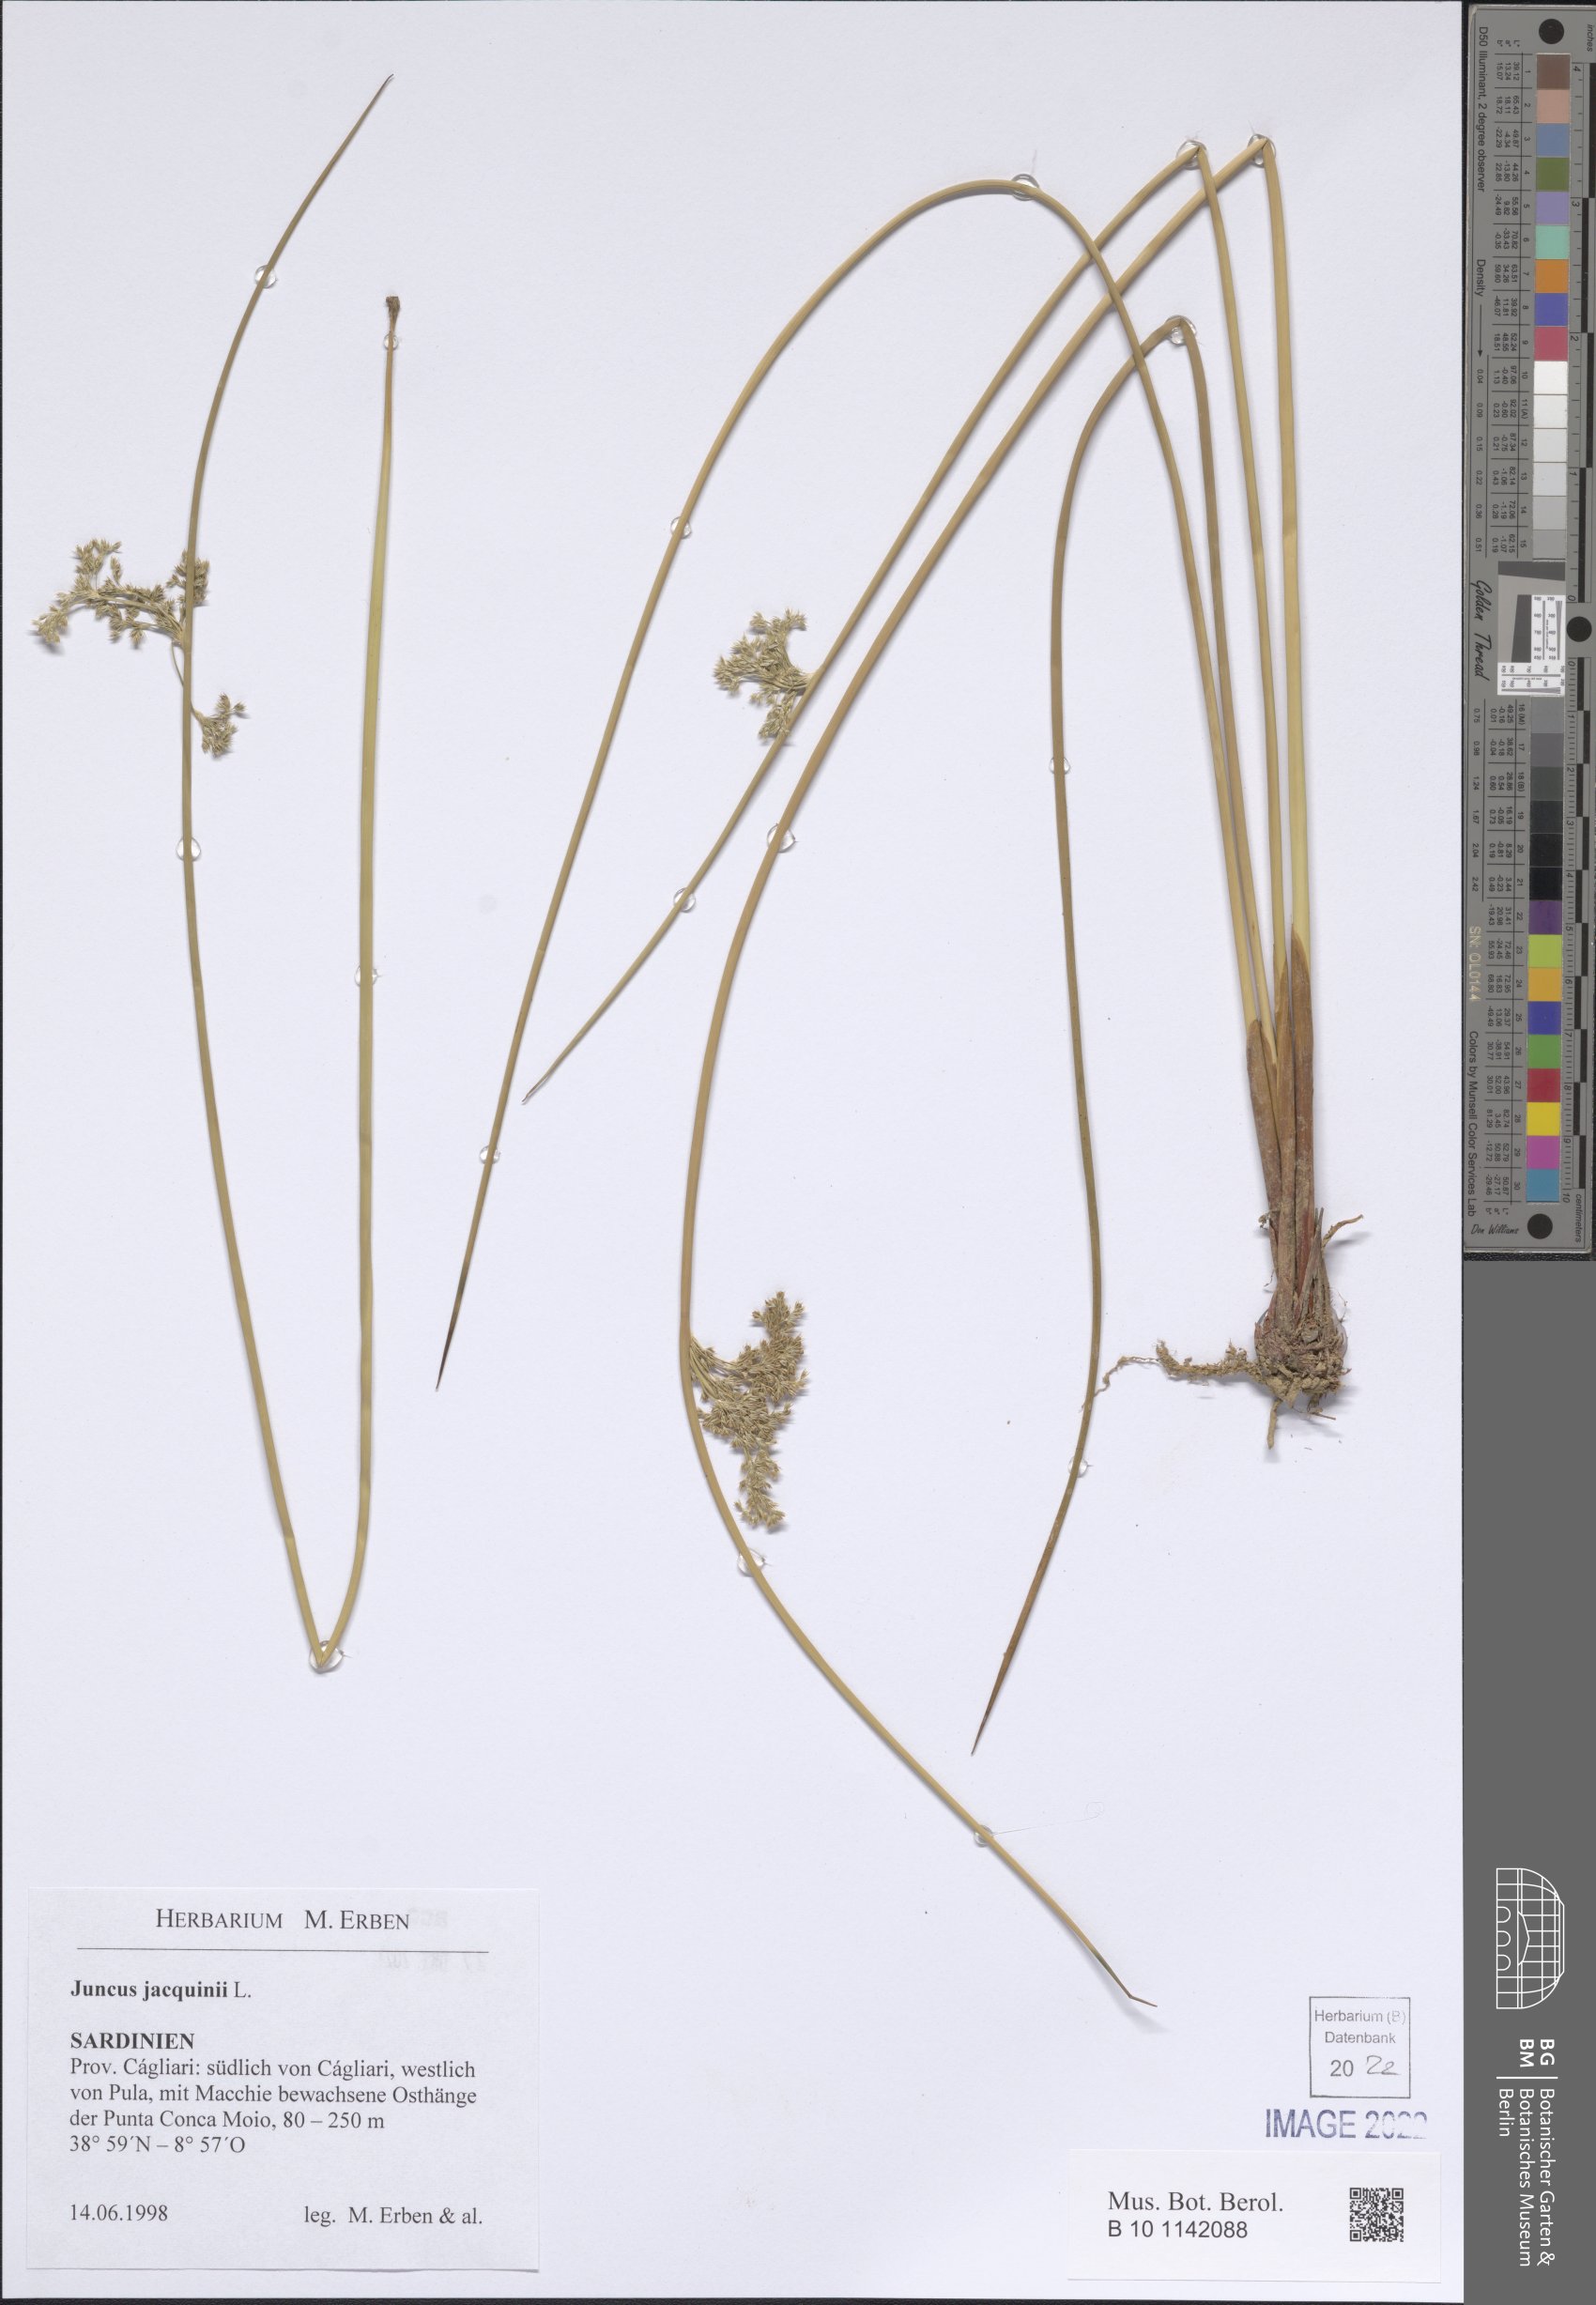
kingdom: Plantae
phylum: Tracheophyta
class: Liliopsida
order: Poales
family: Juncaceae
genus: Juncus
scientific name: Juncus jacquinii
